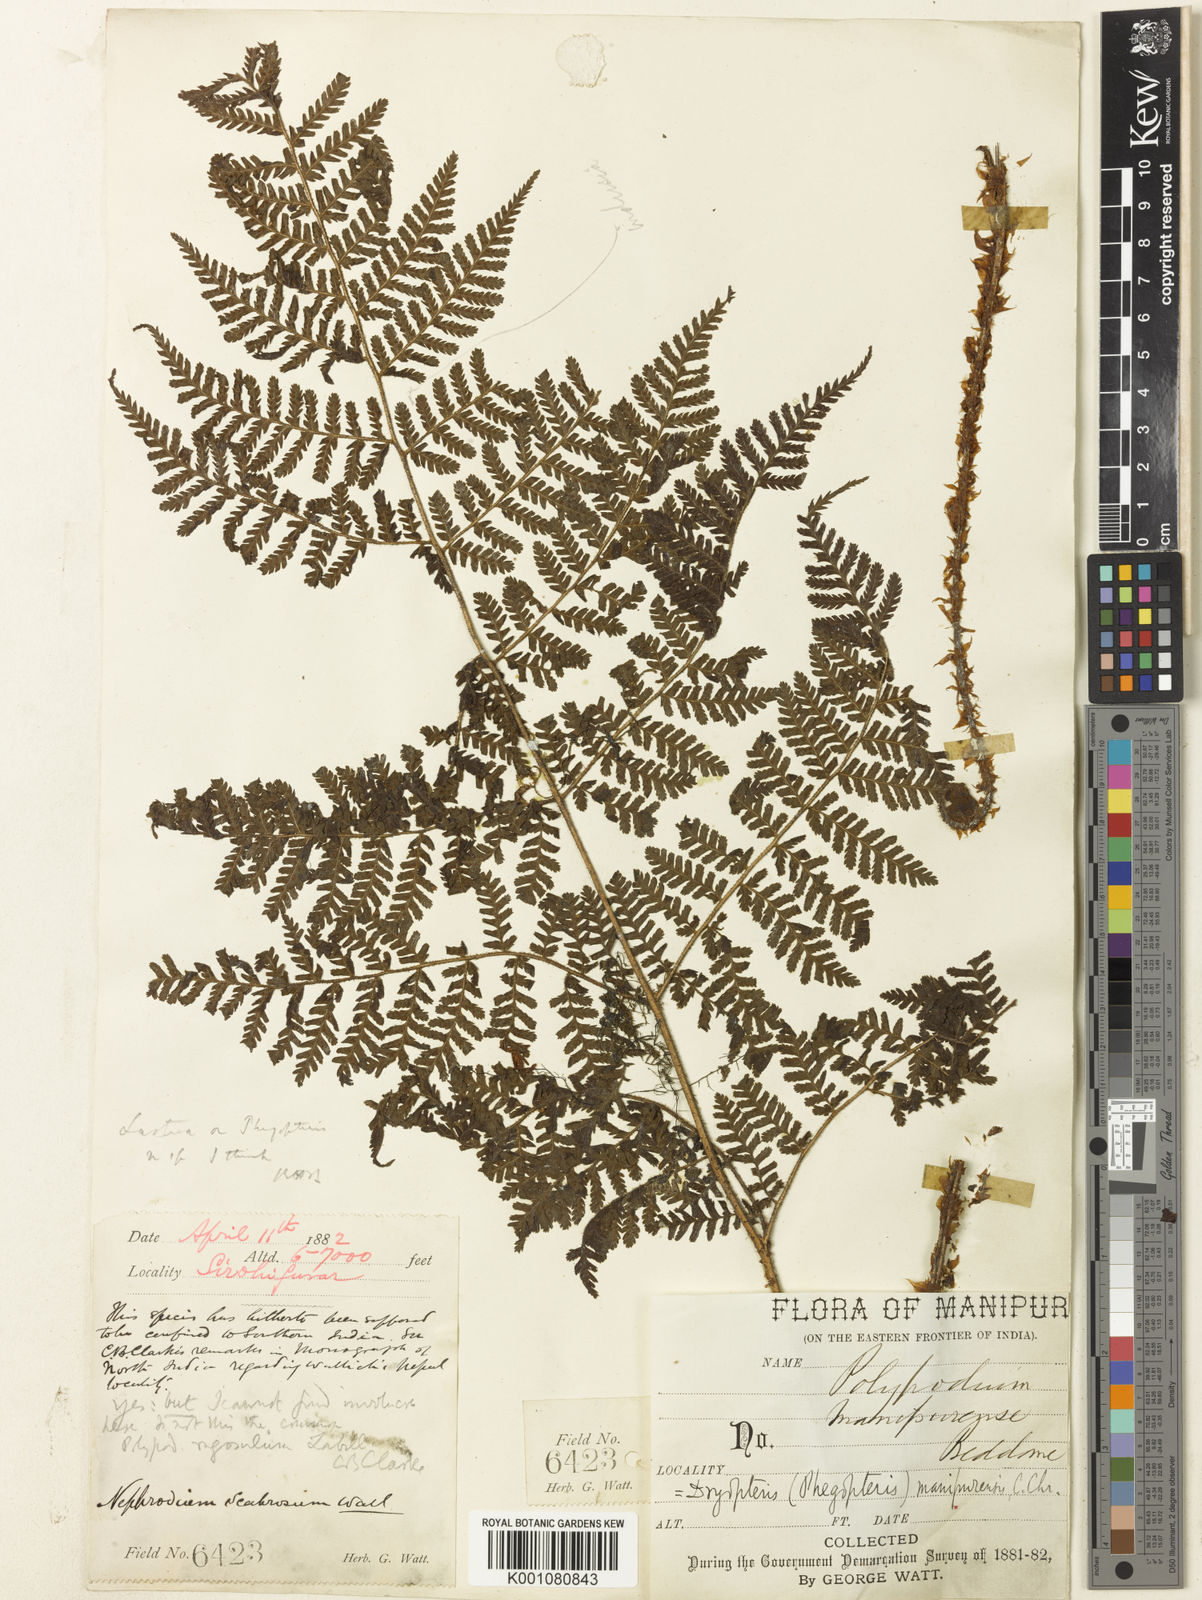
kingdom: Plantae
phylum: Tracheophyta
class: Polypodiopsida
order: Polypodiales
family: Dryopteridaceae
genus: Dryopteris
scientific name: Dryopteris manipurensis
